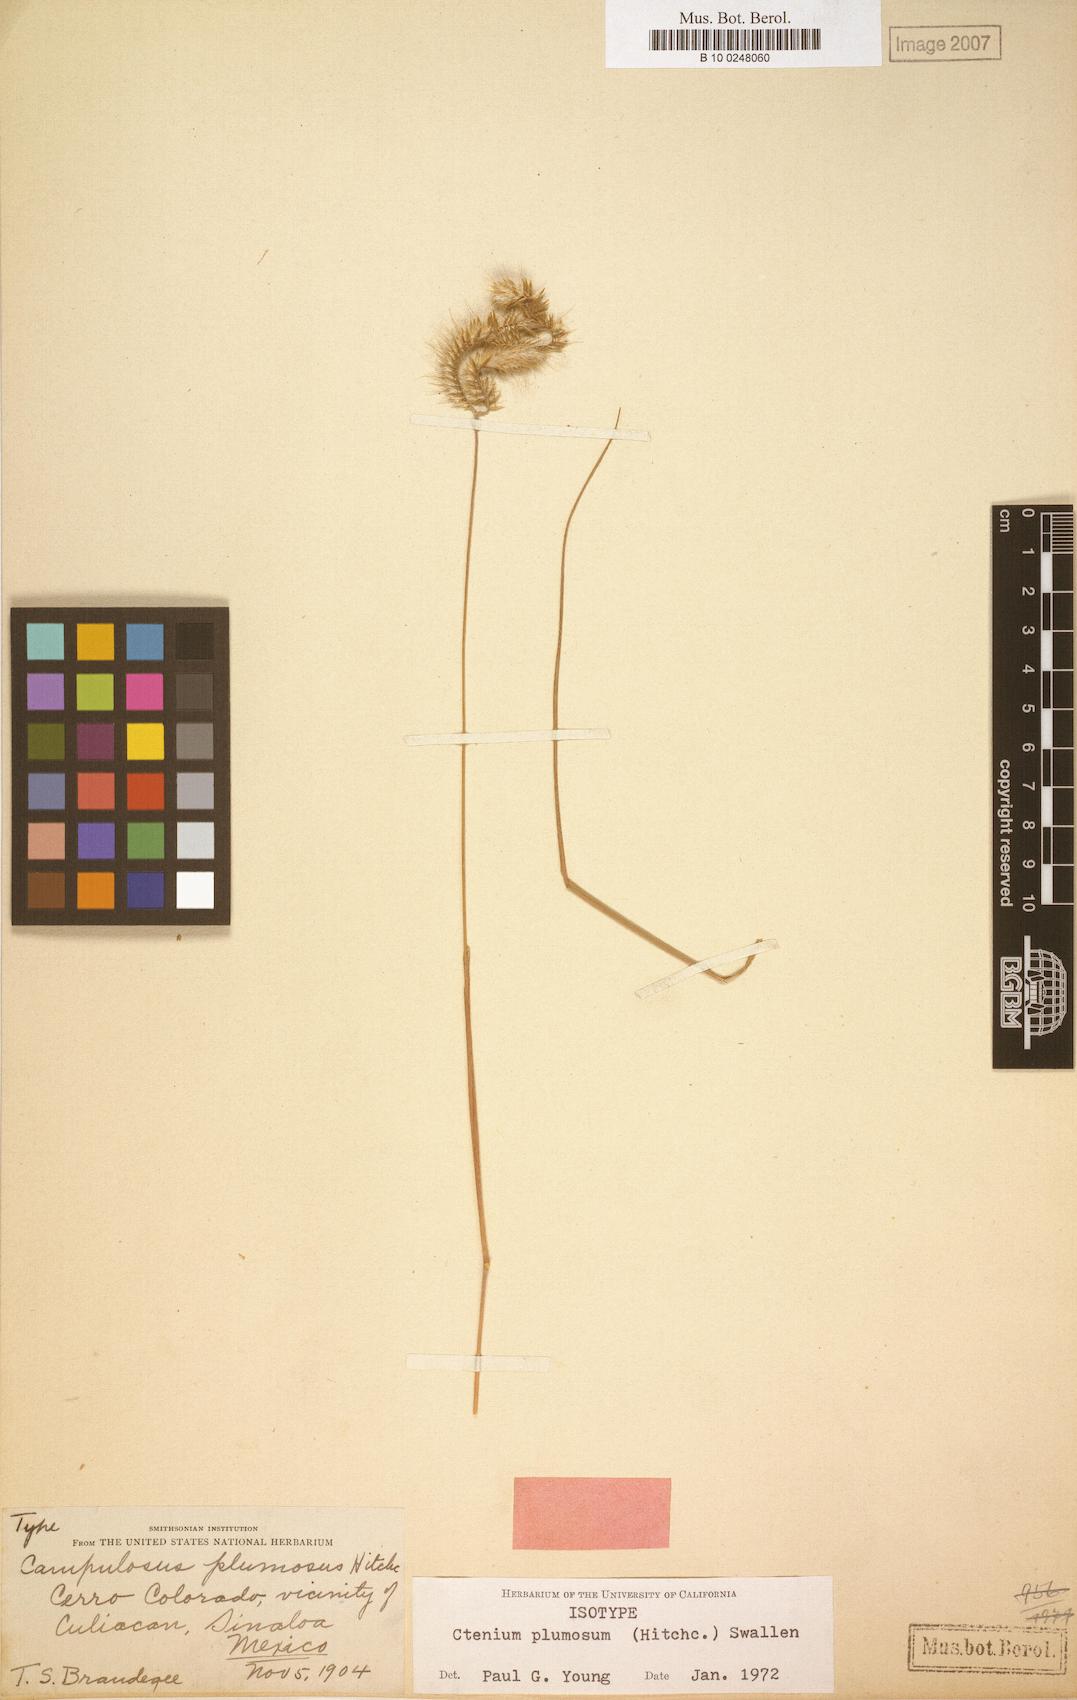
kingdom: Plantae
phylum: Tracheophyta
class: Liliopsida
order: Poales
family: Poaceae
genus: Ctenium
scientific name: Ctenium plumosum
